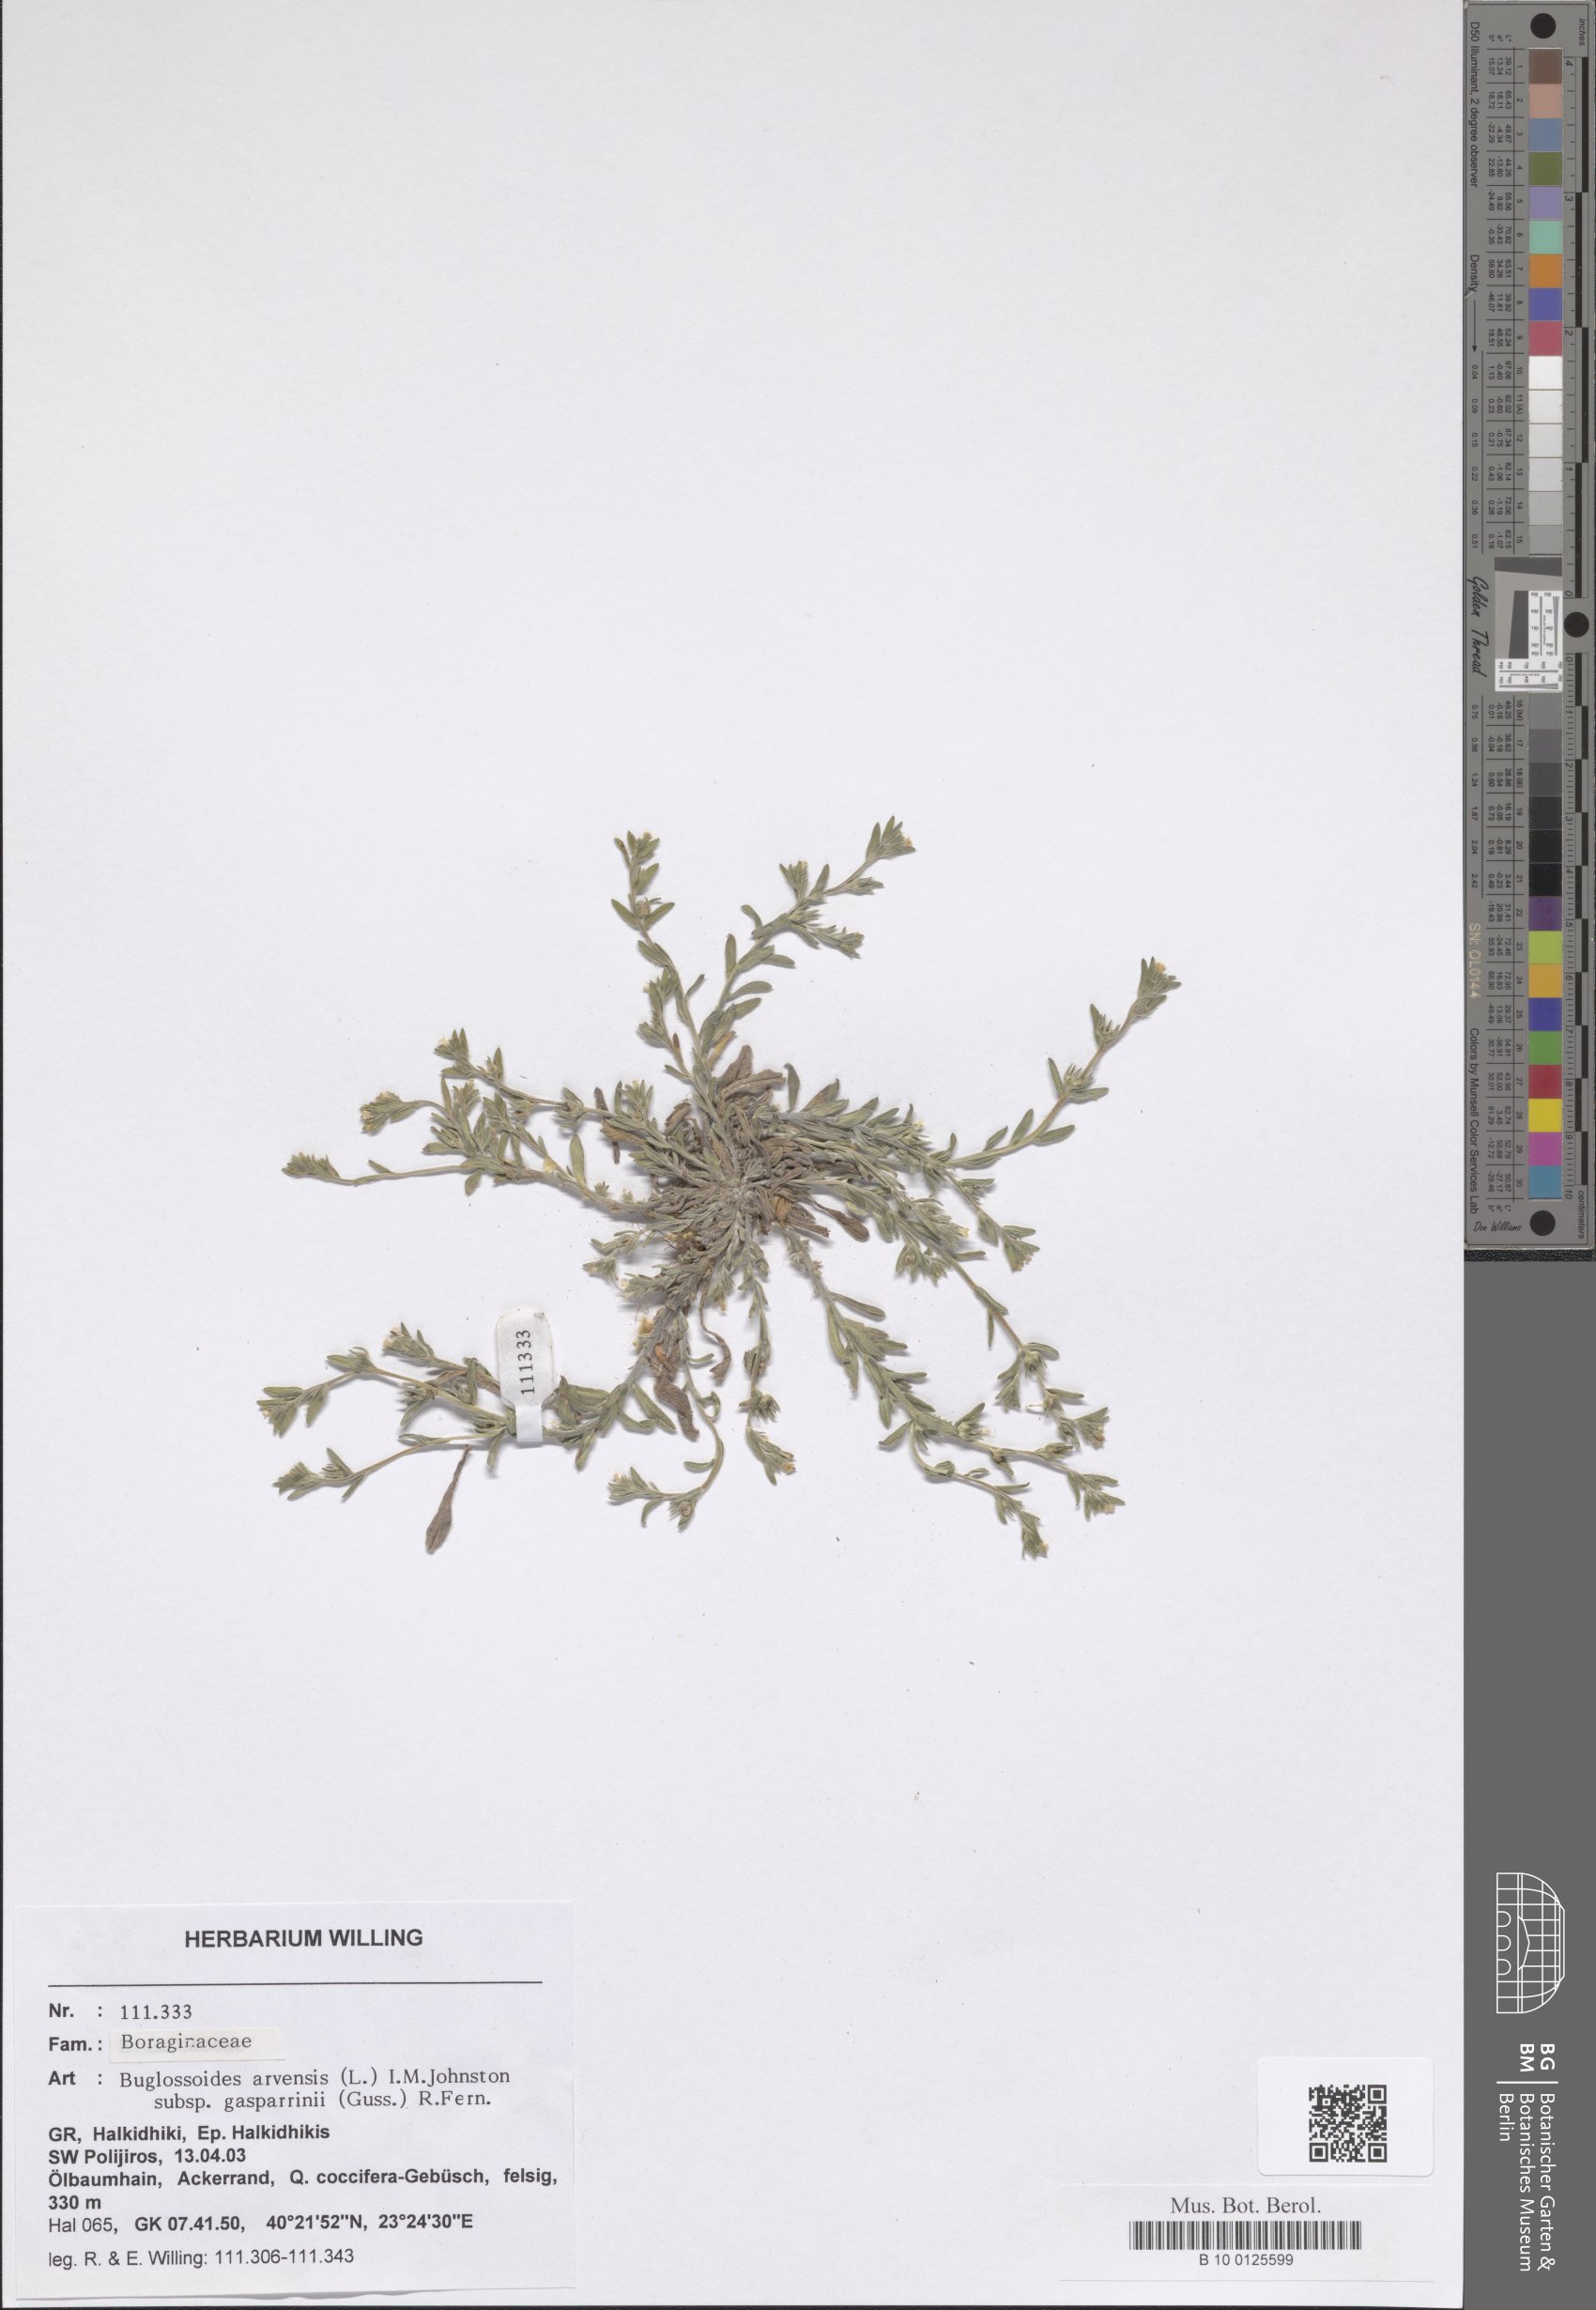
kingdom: Plantae
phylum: Tracheophyta
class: Magnoliopsida
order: Boraginales
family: Boraginaceae
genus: Buglossoides
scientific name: Buglossoides incrassata
